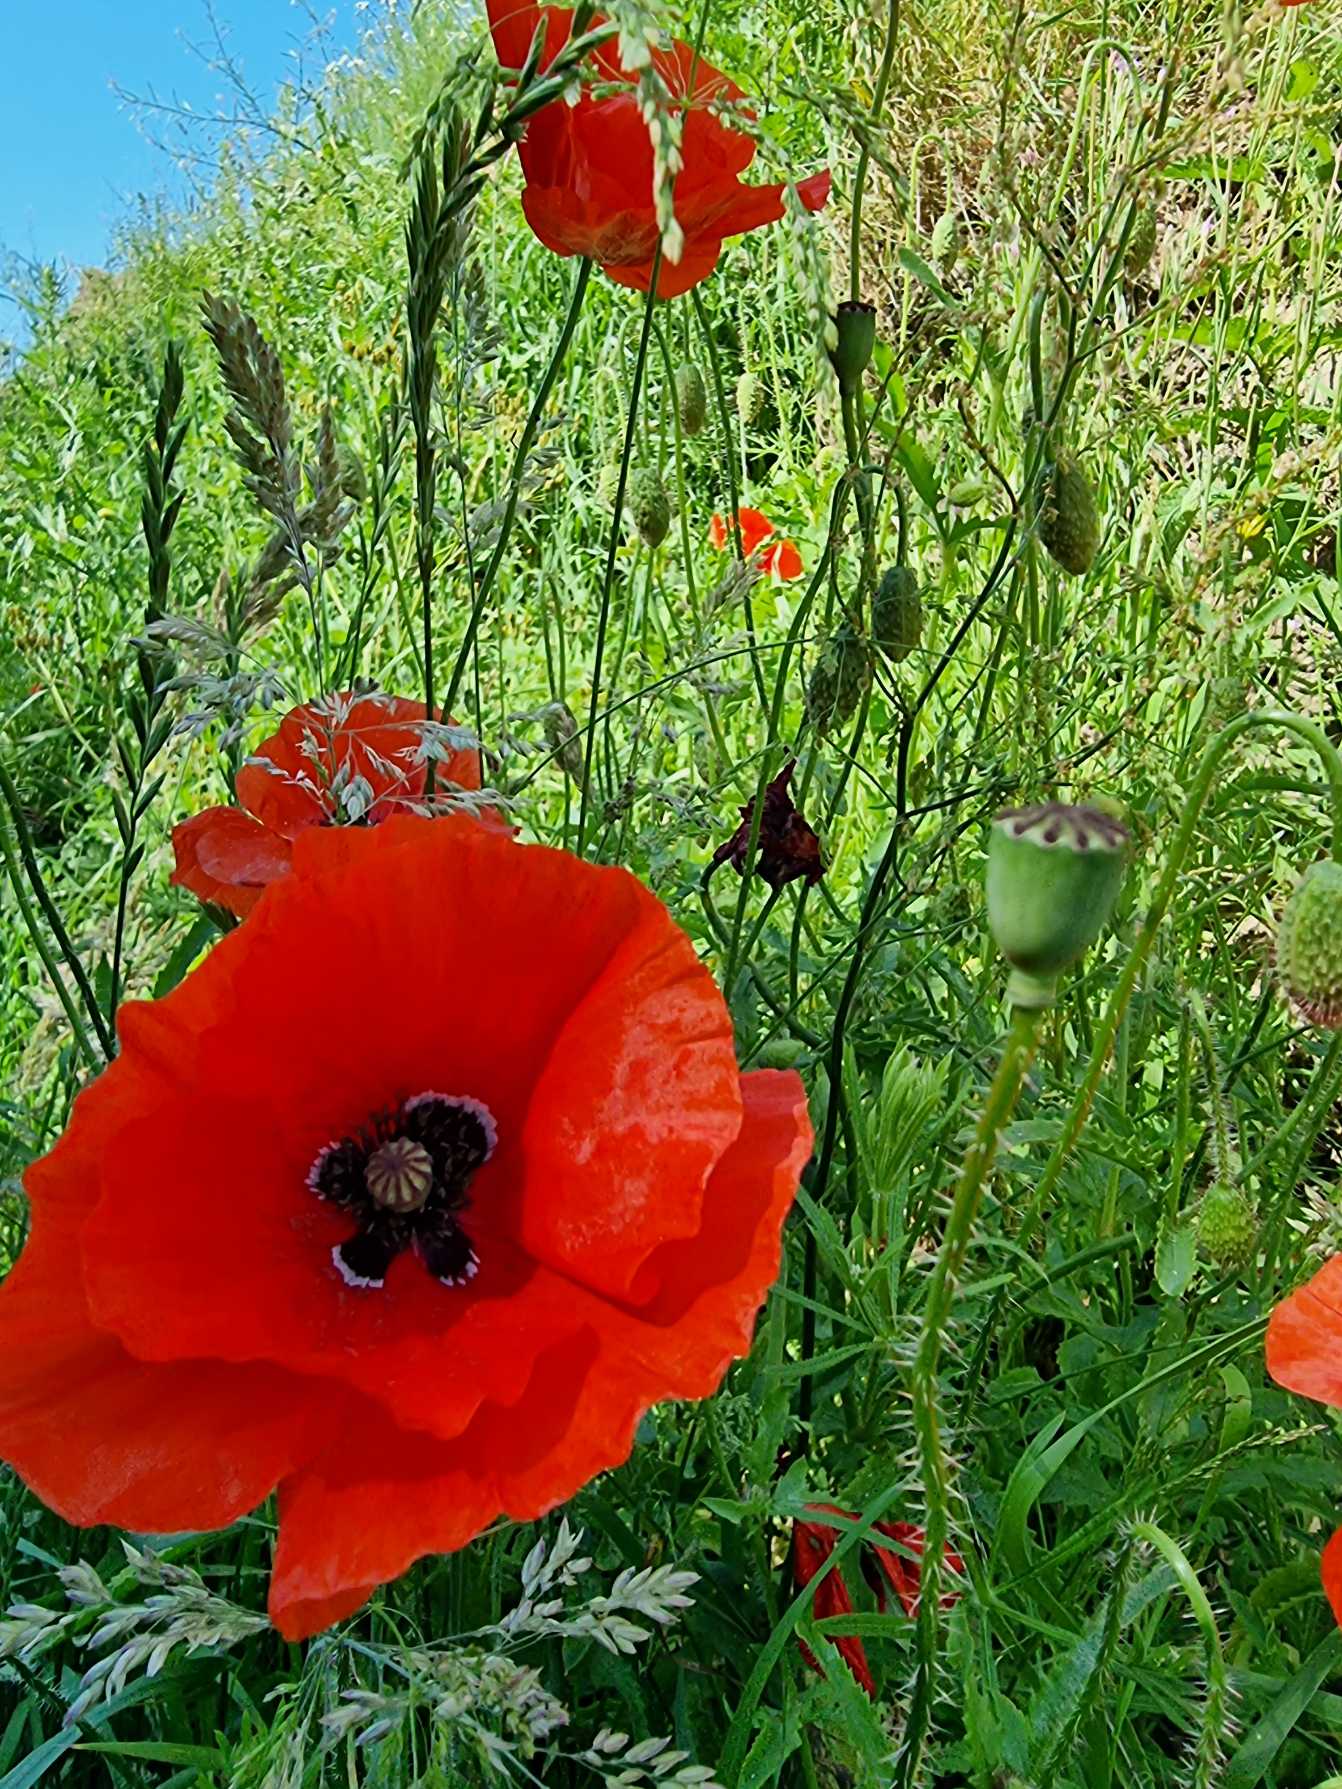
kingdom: Plantae
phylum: Tracheophyta
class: Magnoliopsida
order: Ranunculales
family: Papaveraceae
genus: Papaver
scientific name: Papaver rhoeas
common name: Korn-valmue
